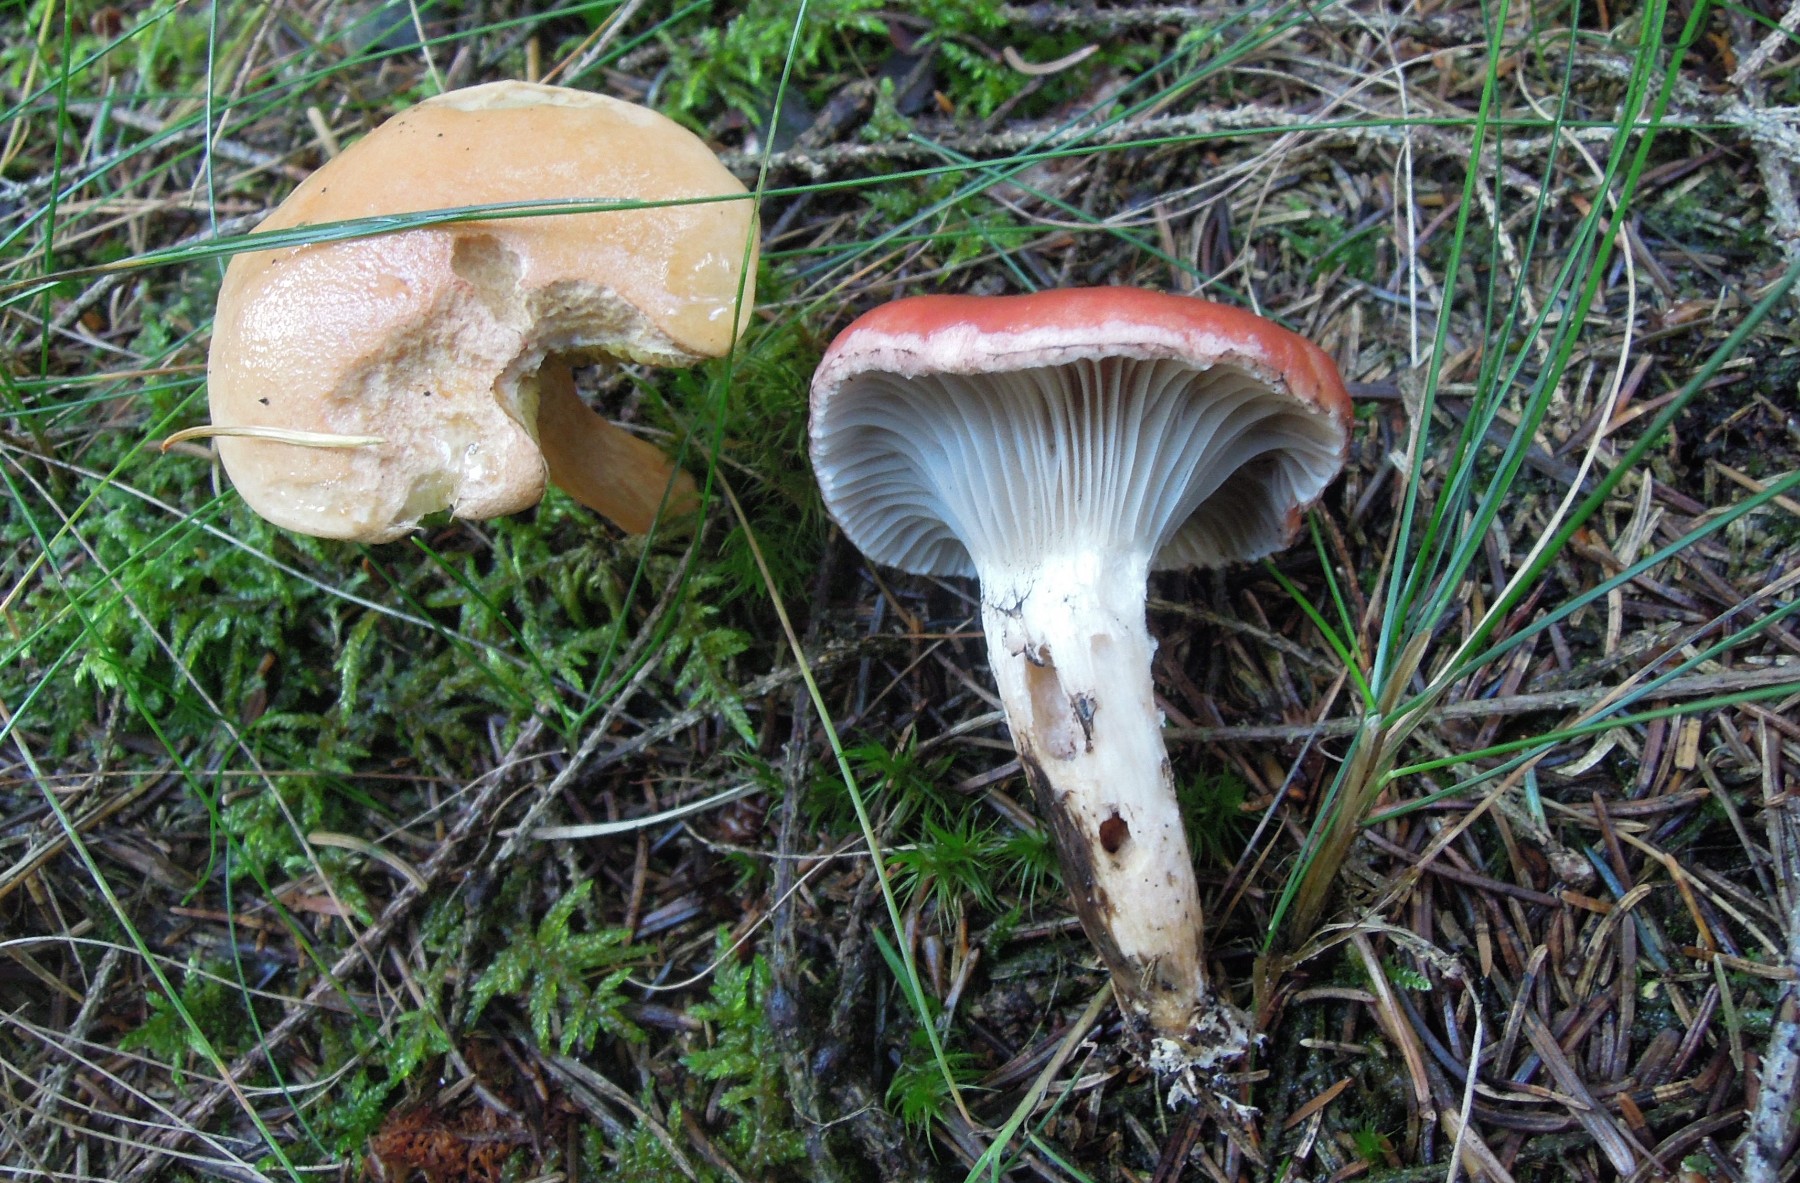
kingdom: Fungi
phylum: Basidiomycota
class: Agaricomycetes
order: Boletales
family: Gomphidiaceae
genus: Gomphidius
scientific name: Gomphidius roseus
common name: rosenrød slimslør
